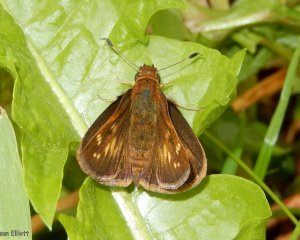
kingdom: Animalia
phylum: Arthropoda
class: Insecta
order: Lepidoptera
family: Hesperiidae
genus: Lon
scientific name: Lon hobomok
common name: Hobomok Skipper
